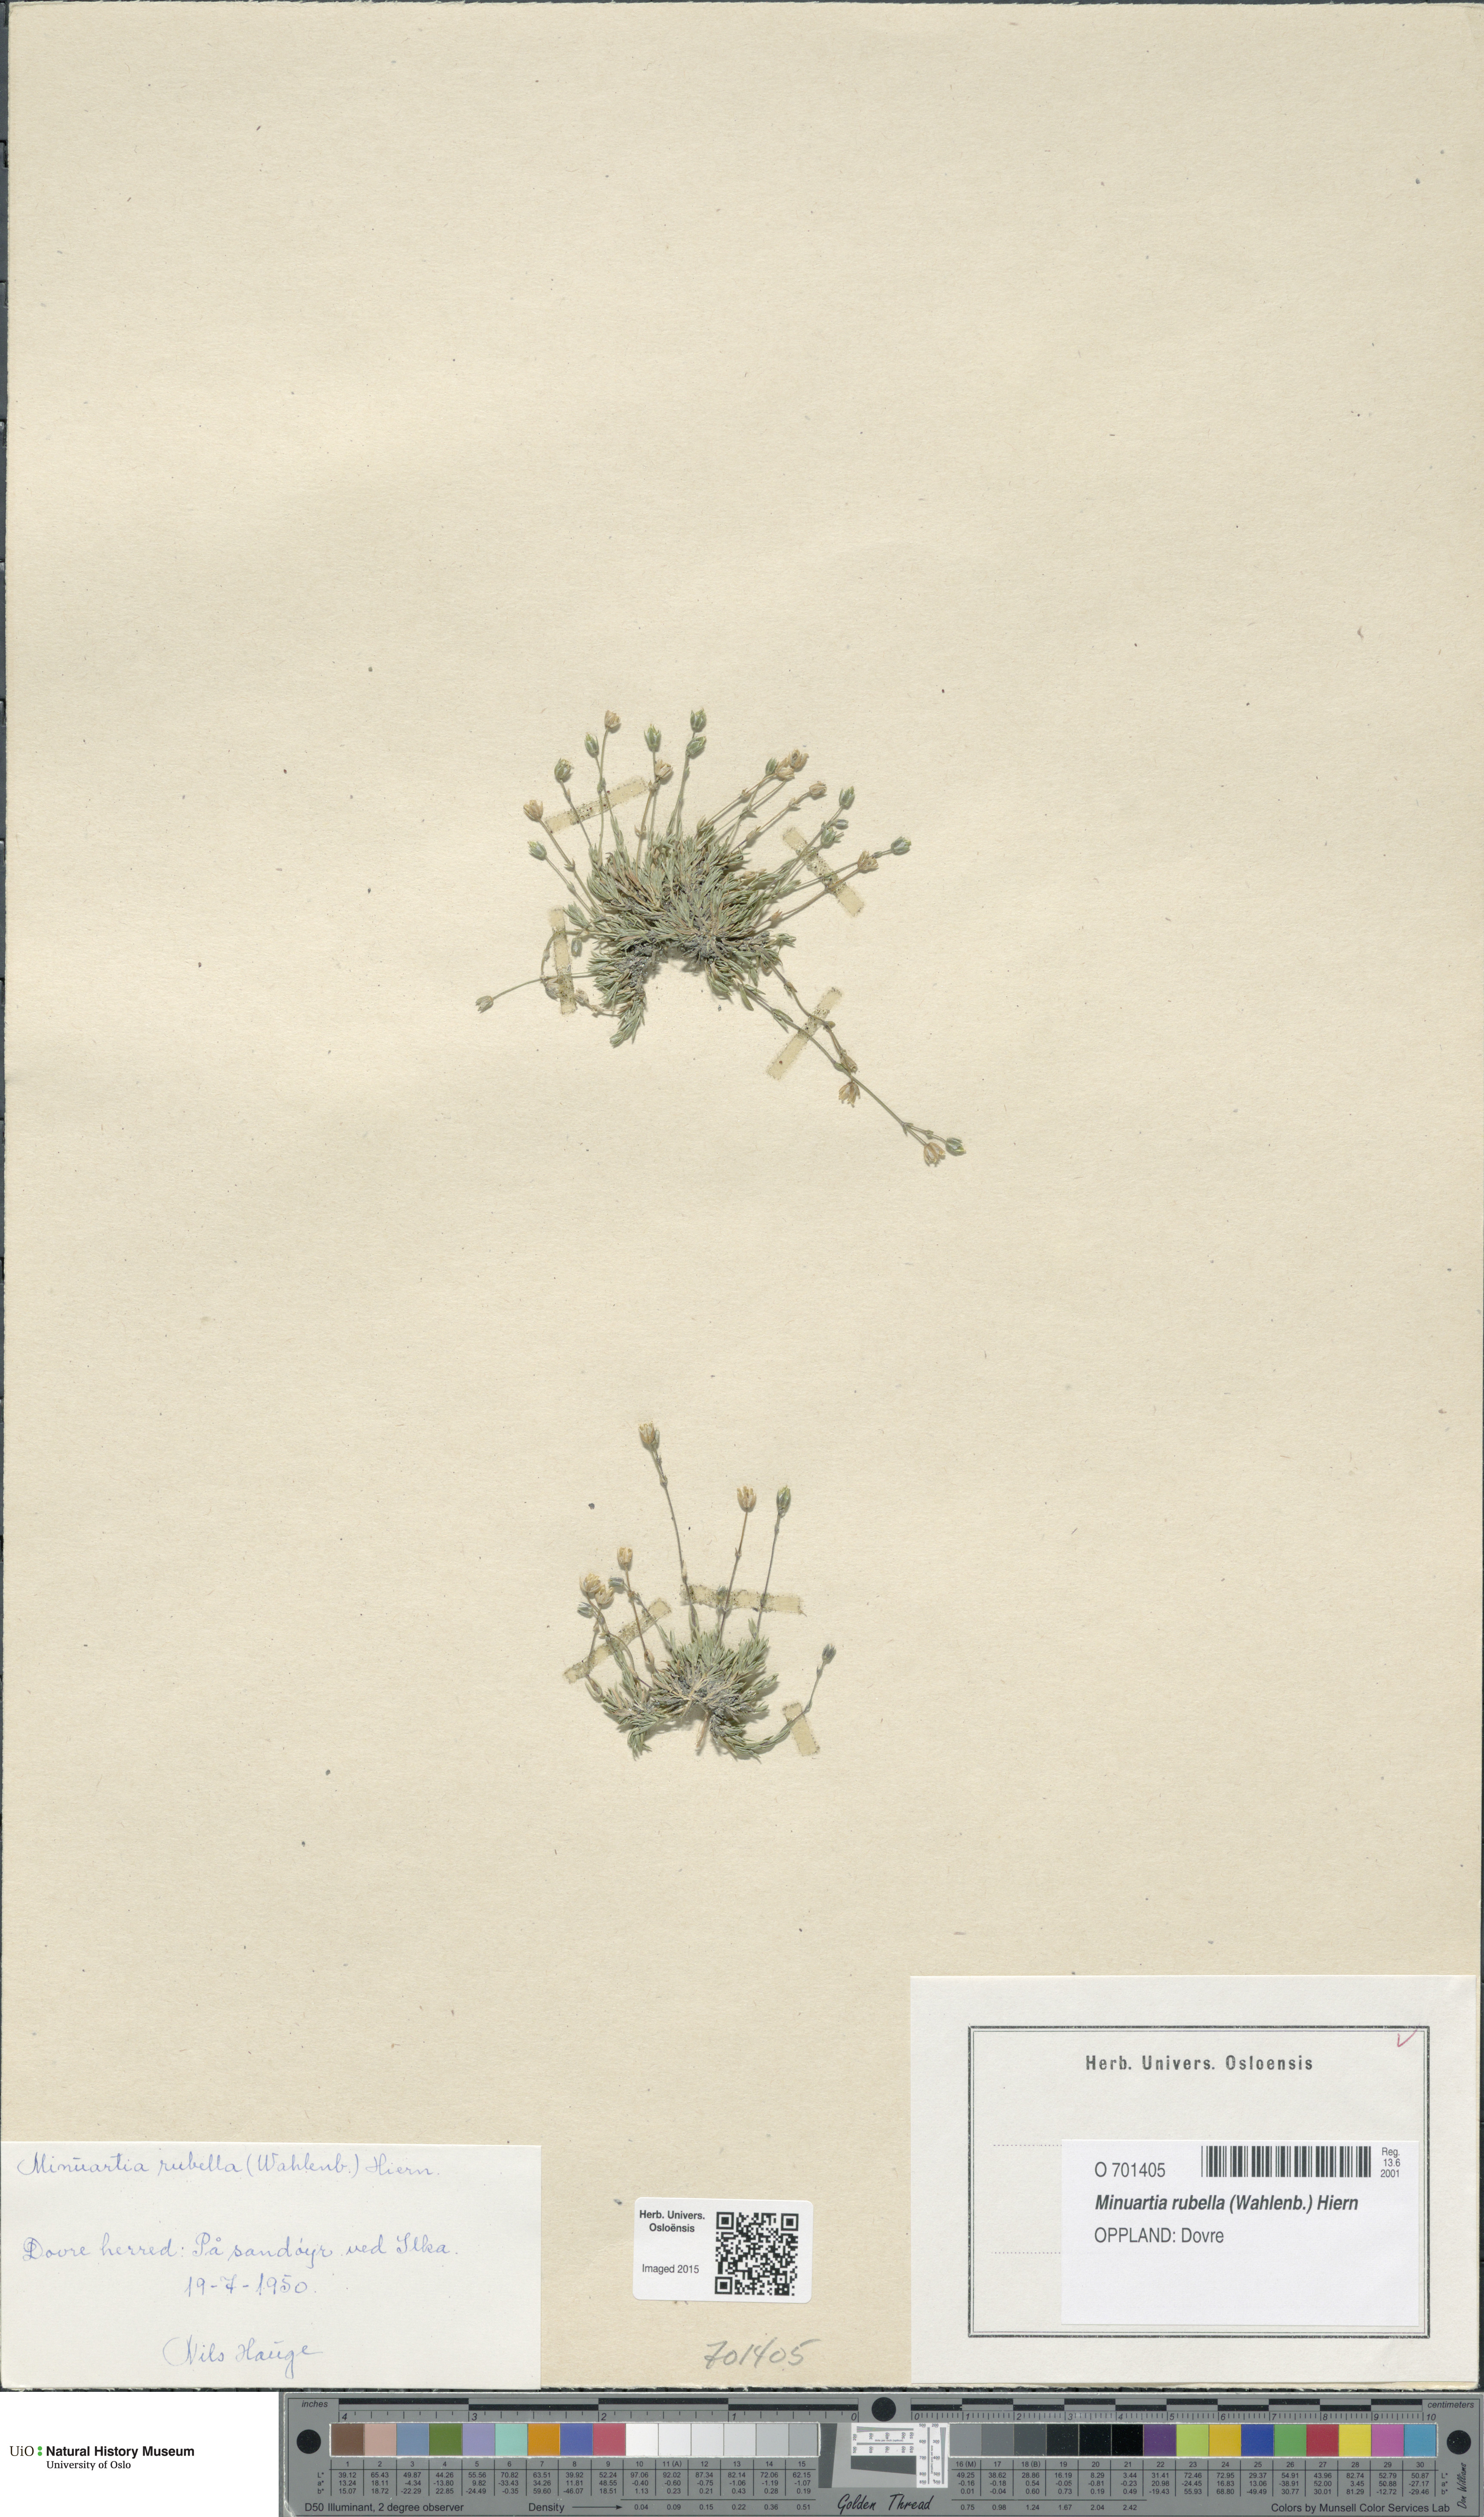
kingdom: Plantae
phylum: Tracheophyta
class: Magnoliopsida
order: Caryophyllales
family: Caryophyllaceae
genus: Sabulina
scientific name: Sabulina rubella
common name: Beautiful sandwort
